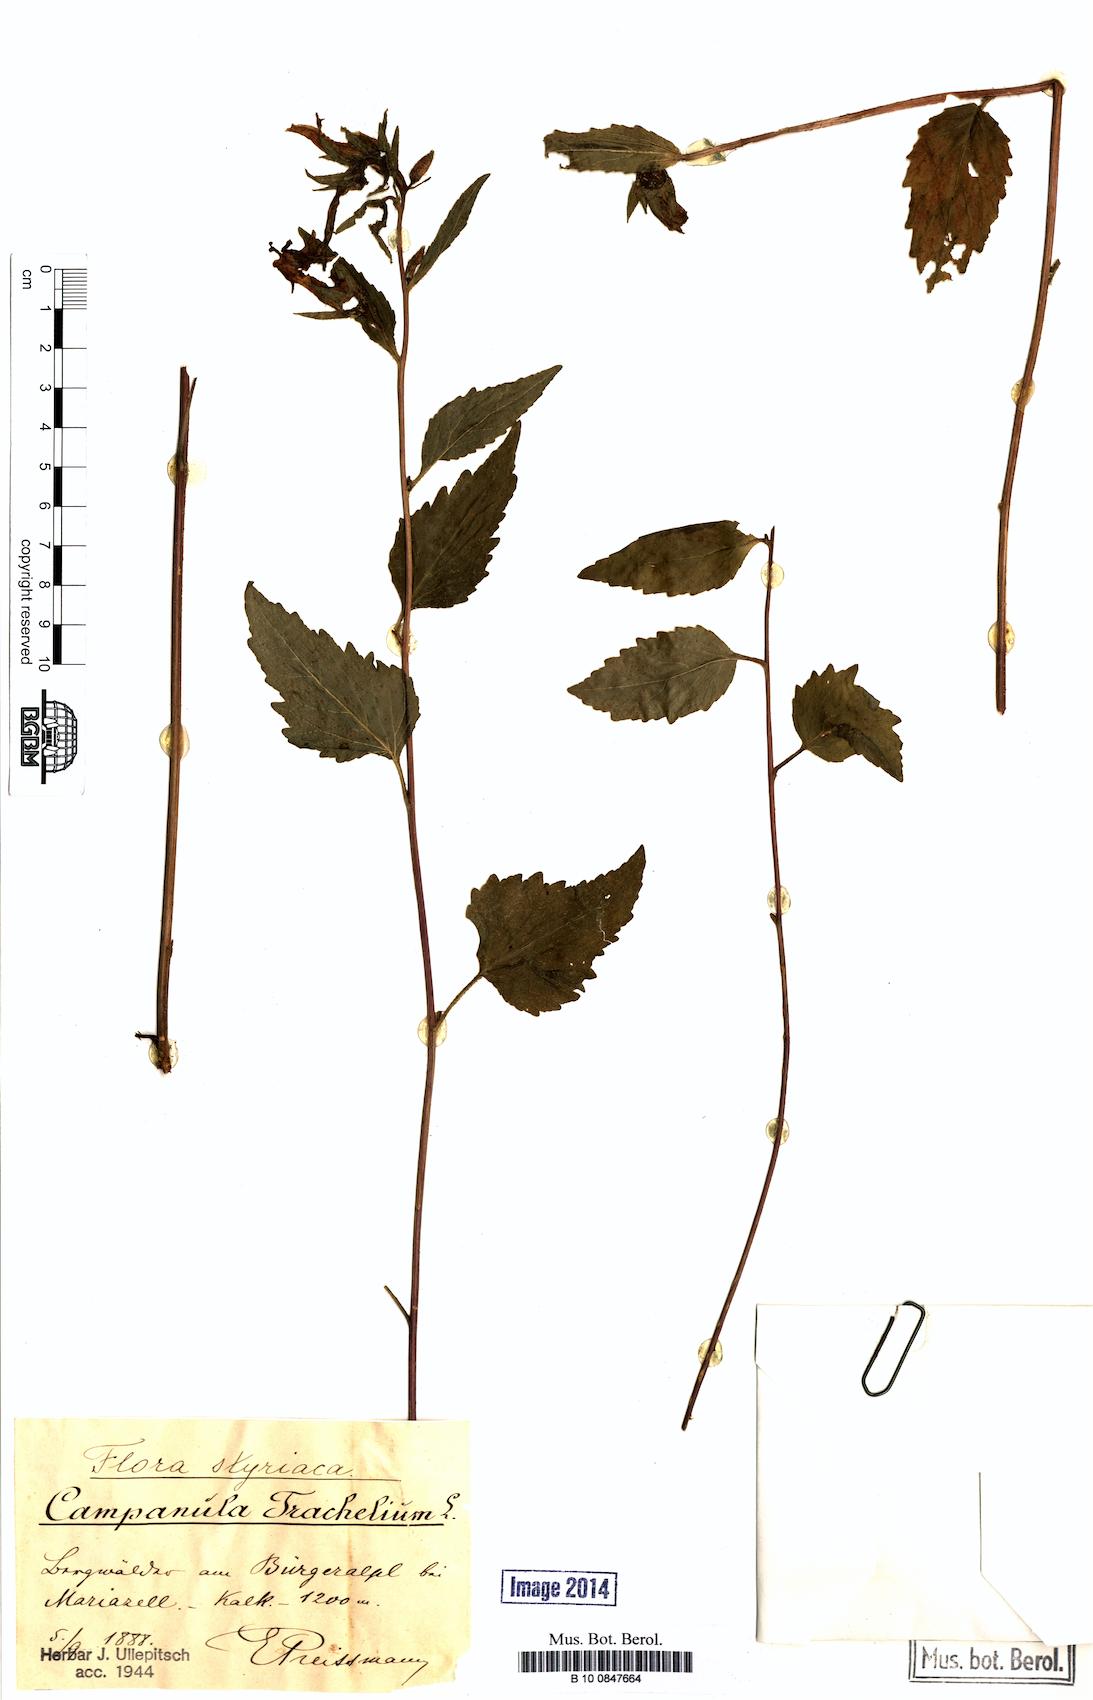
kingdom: Plantae
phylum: Tracheophyta
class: Magnoliopsida
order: Asterales
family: Campanulaceae
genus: Campanula
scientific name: Campanula trachelium
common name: Nettle-leaved bellflower
